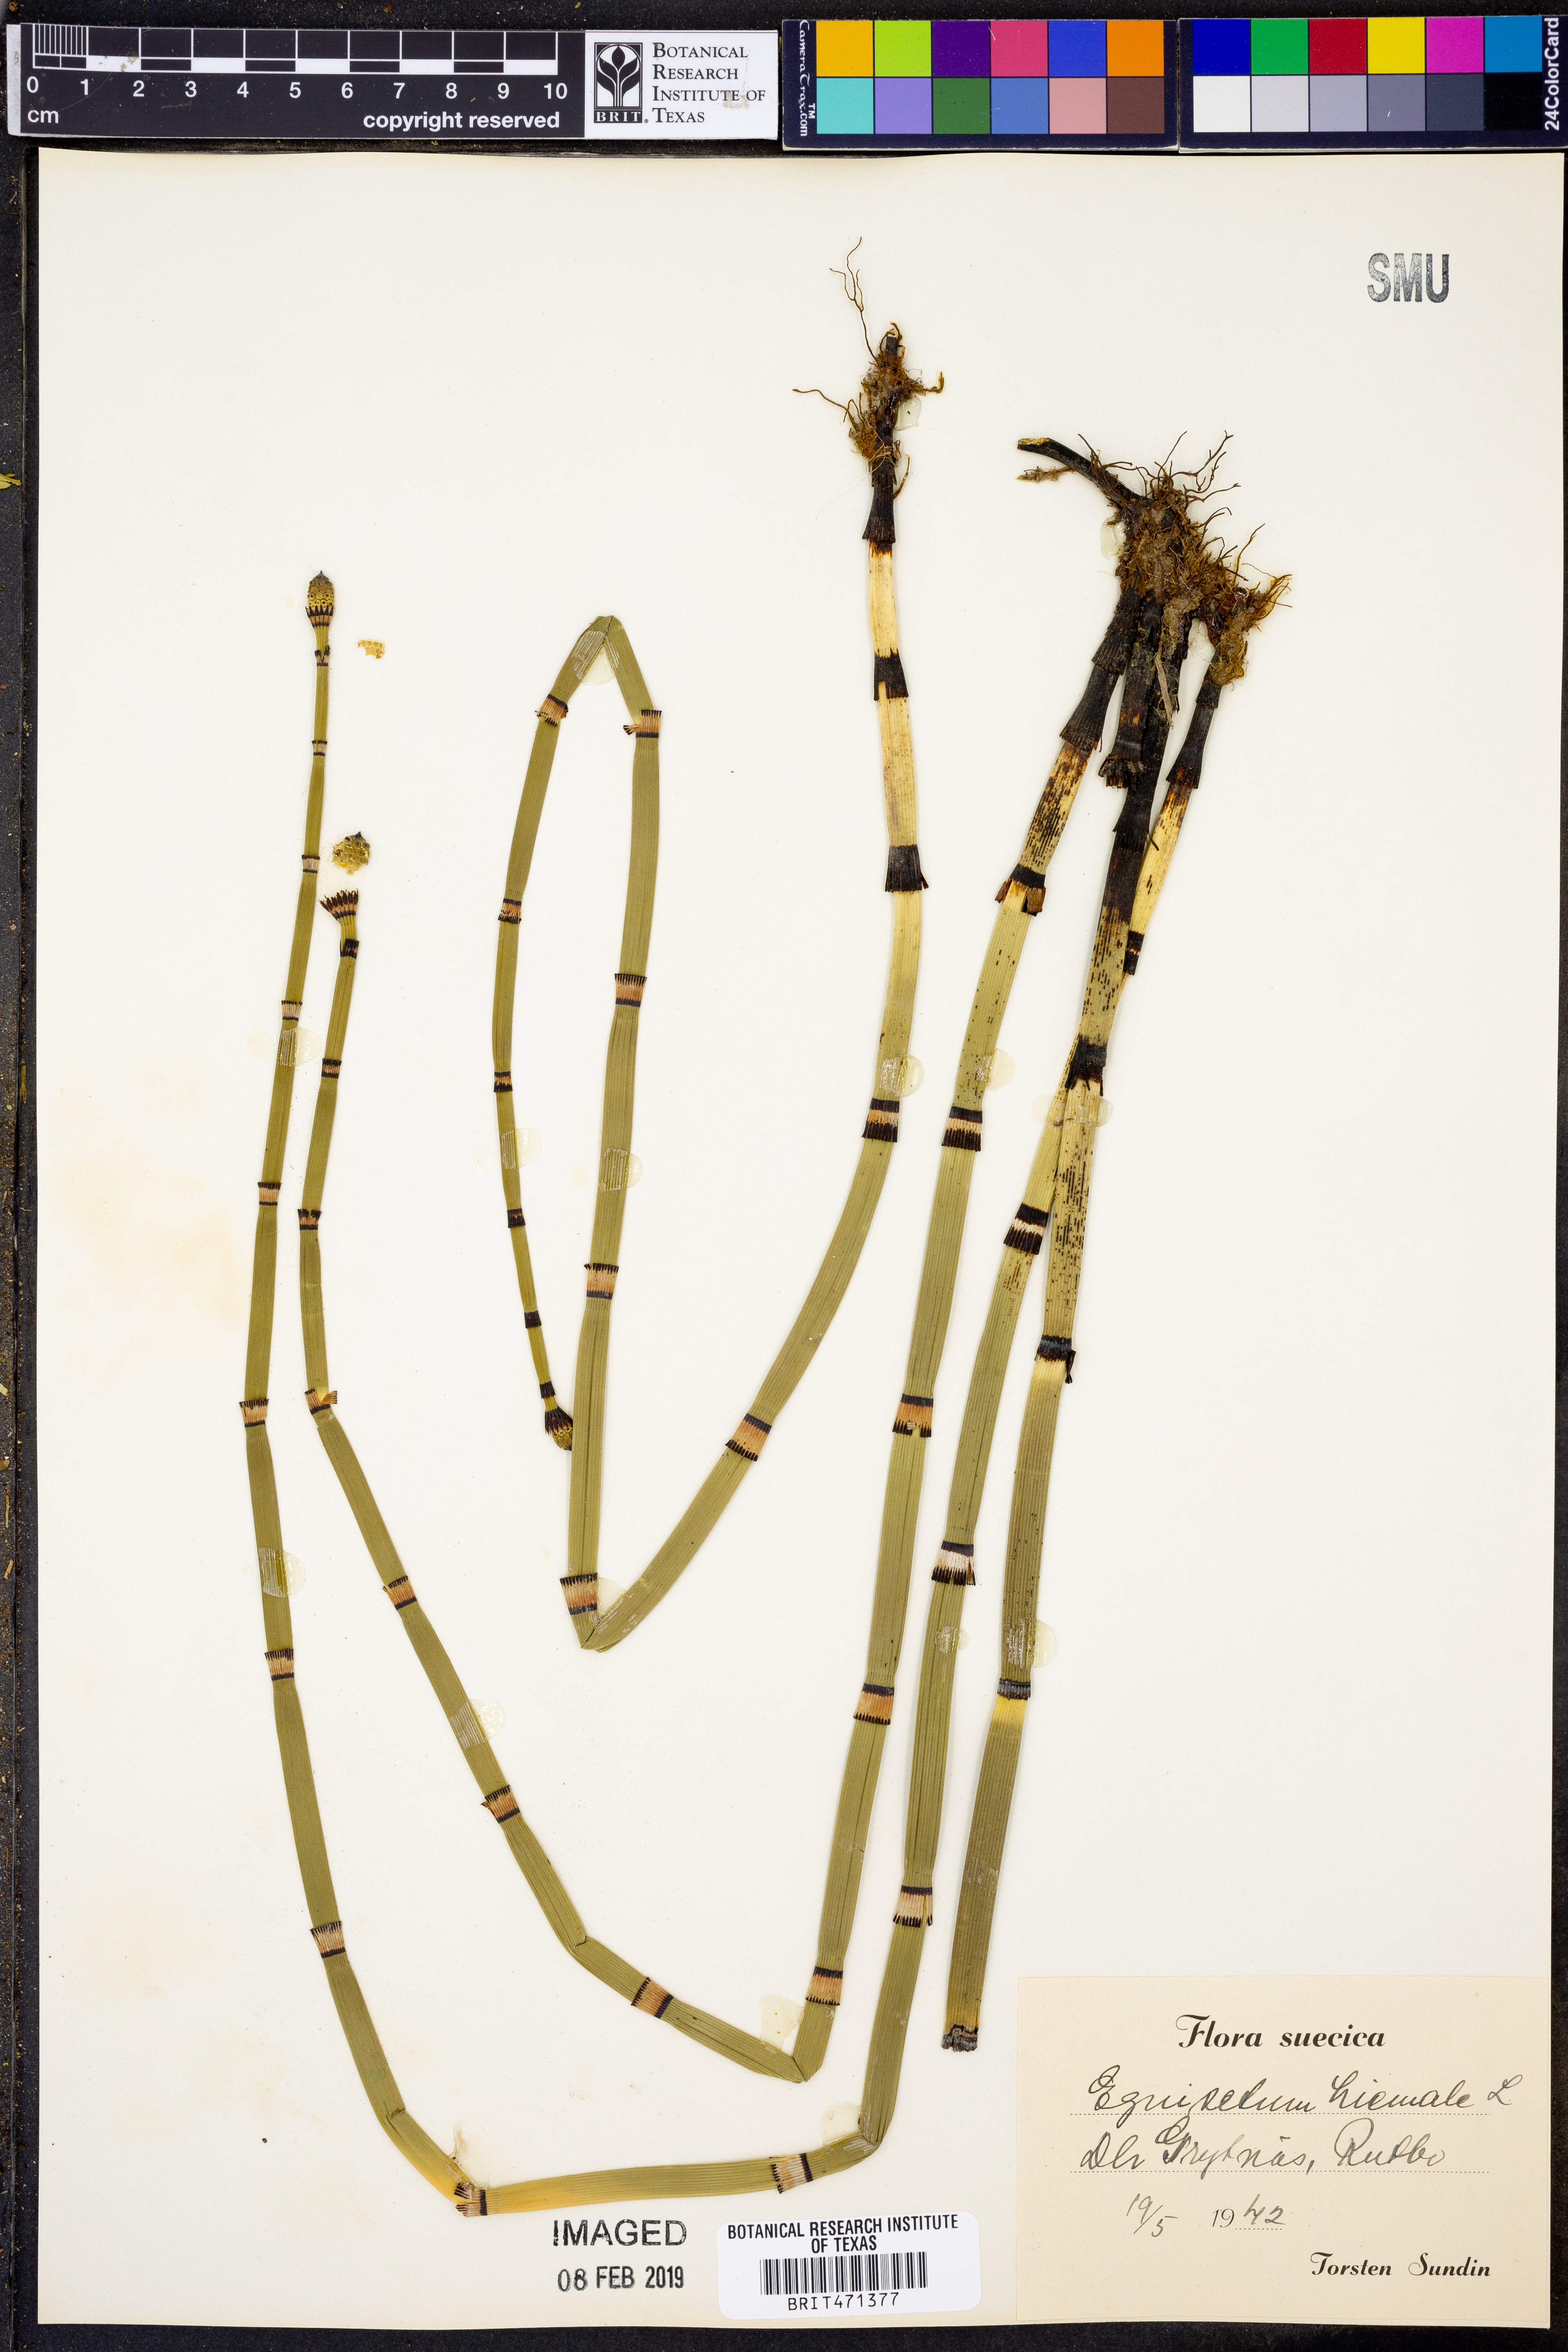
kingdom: Plantae
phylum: Tracheophyta
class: Polypodiopsida
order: Equisetales
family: Equisetaceae
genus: Equisetum
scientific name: Equisetum hyemale
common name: Rough horsetail
